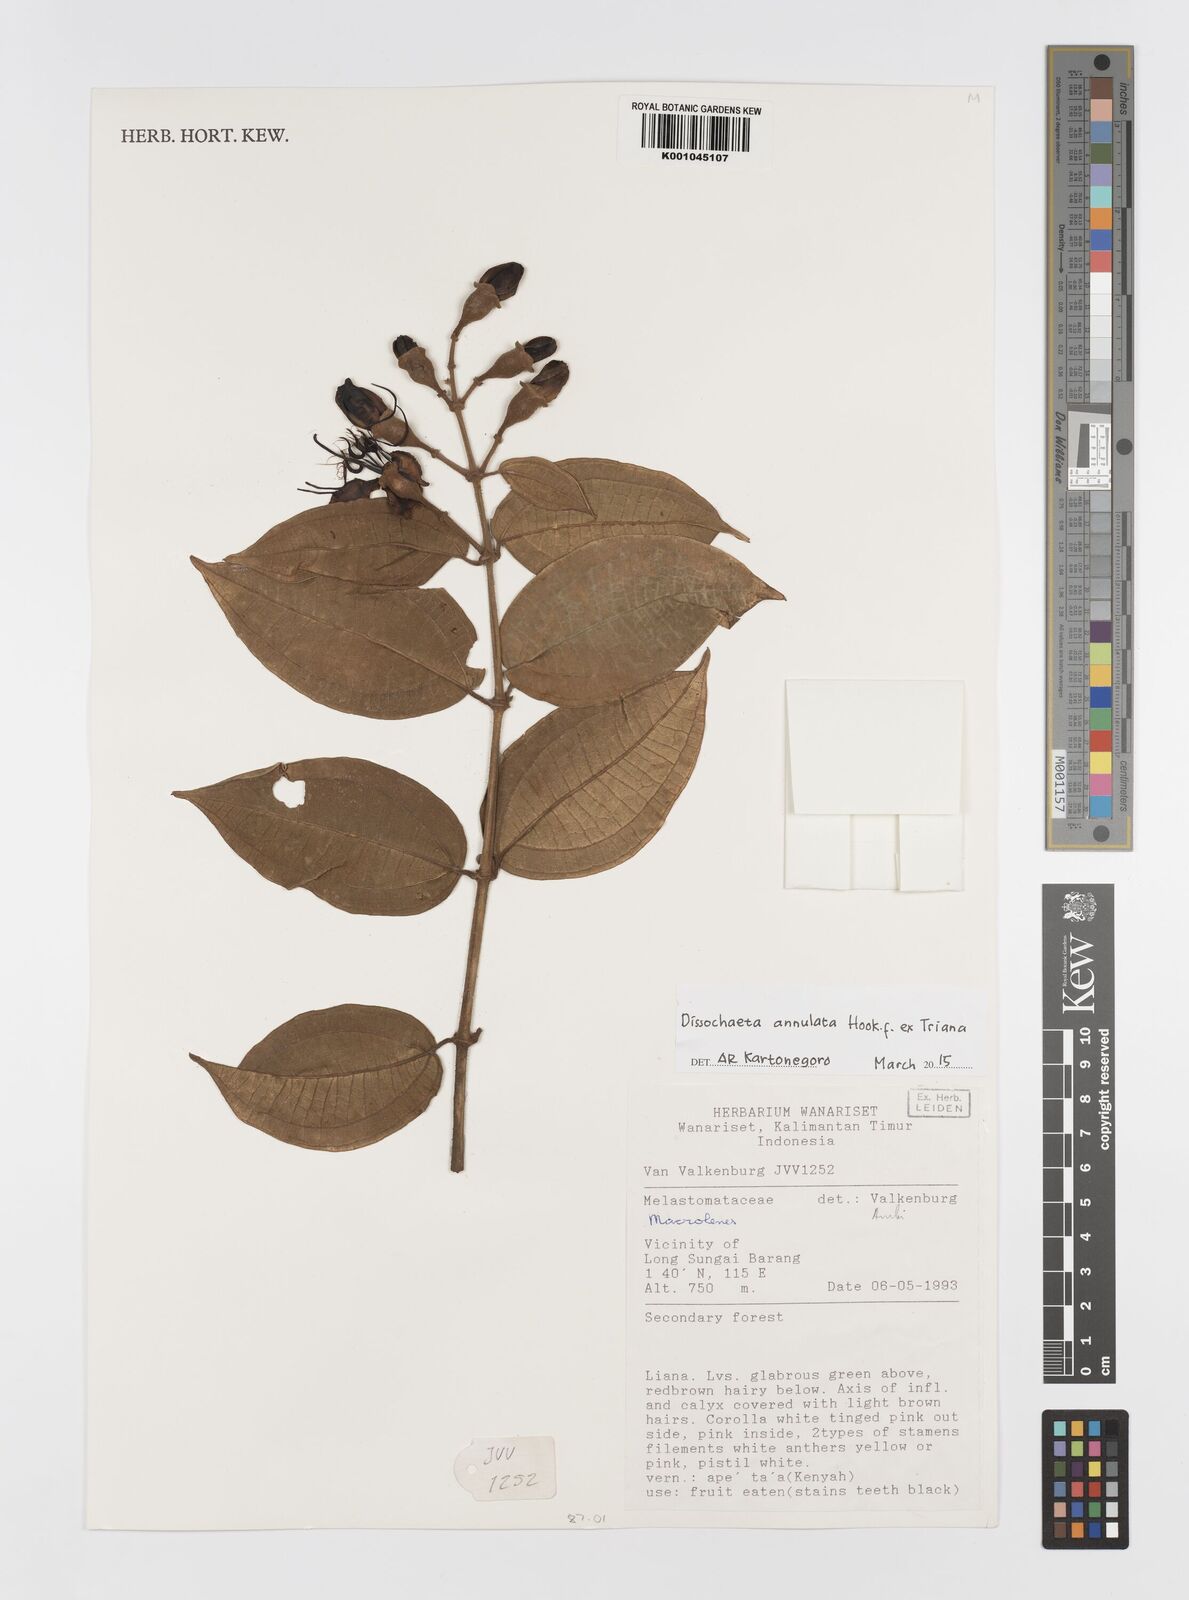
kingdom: Plantae
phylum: Tracheophyta
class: Magnoliopsida
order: Myrtales
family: Melastomataceae
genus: Dissochaeta
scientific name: Dissochaeta annulata
